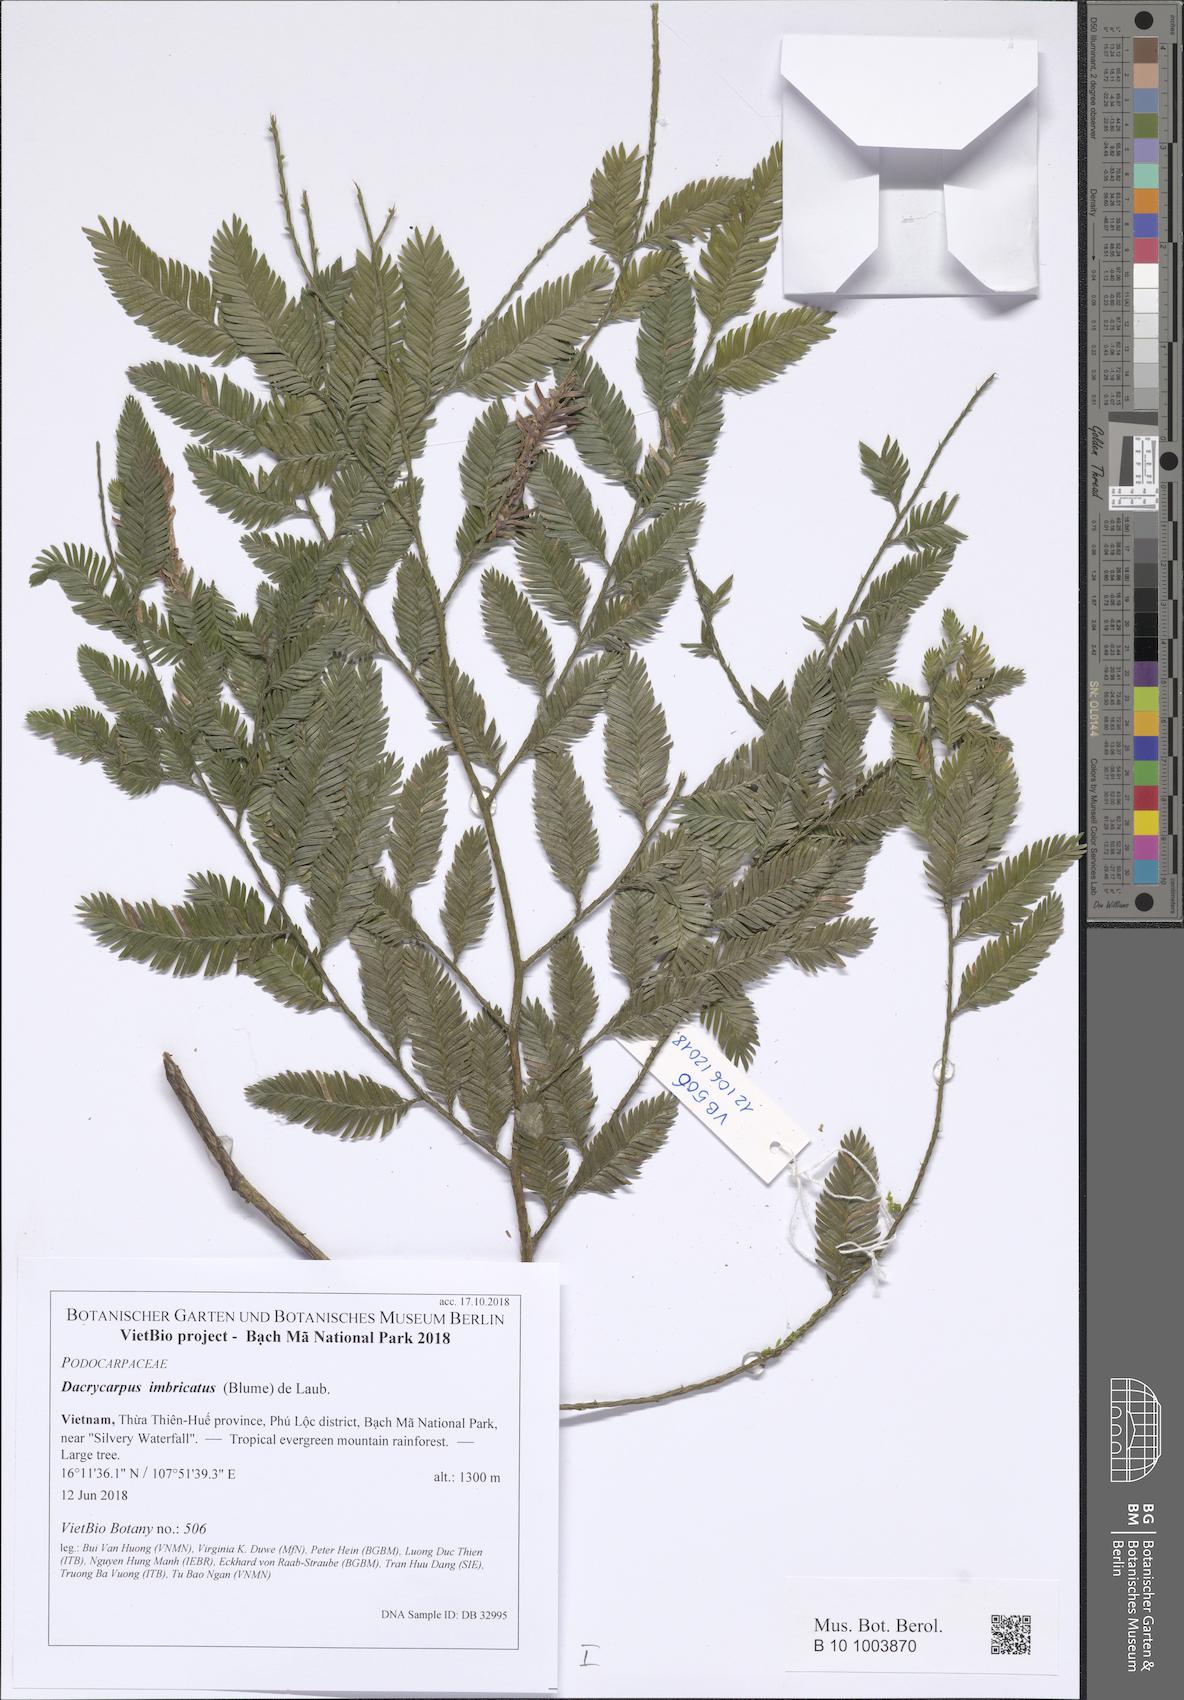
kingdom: Plantae
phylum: Tracheophyta
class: Pinopsida
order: Pinales
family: Podocarpaceae
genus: Dacrycarpus
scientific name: Dacrycarpus imbricatus
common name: Pine
